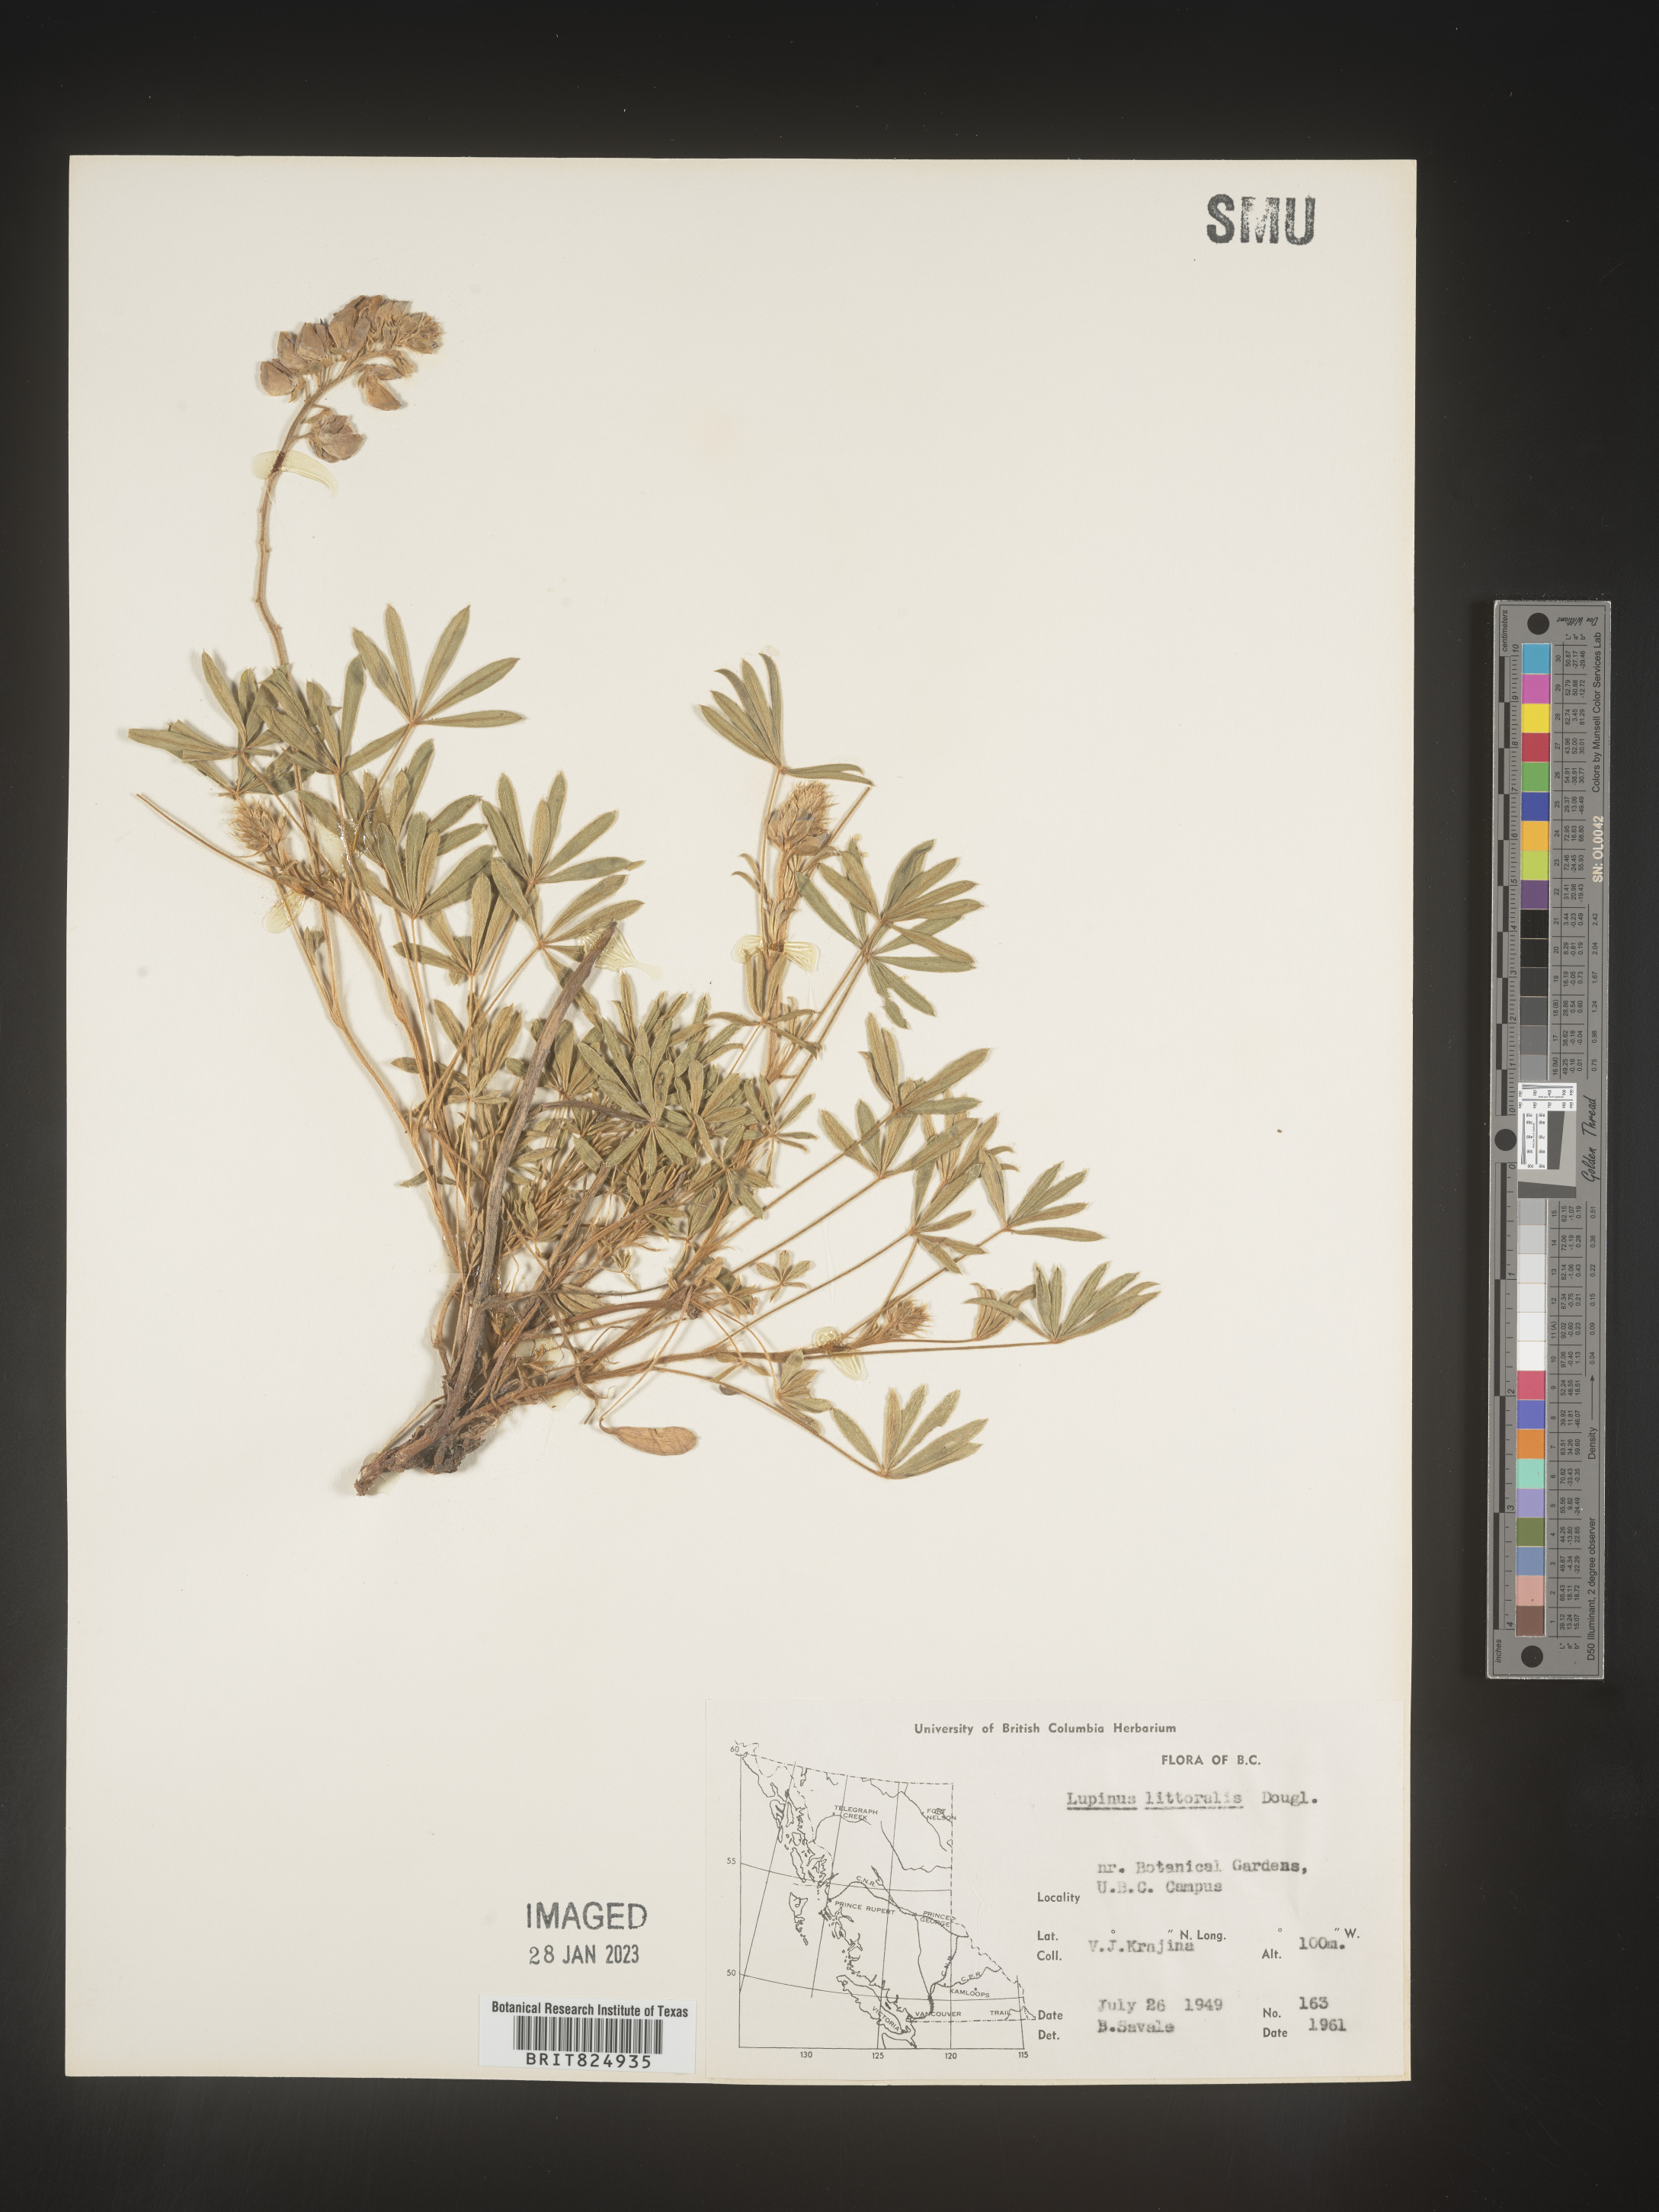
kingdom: Plantae
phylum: Tracheophyta
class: Magnoliopsida
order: Fabales
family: Fabaceae
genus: Lupinus
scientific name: Lupinus
